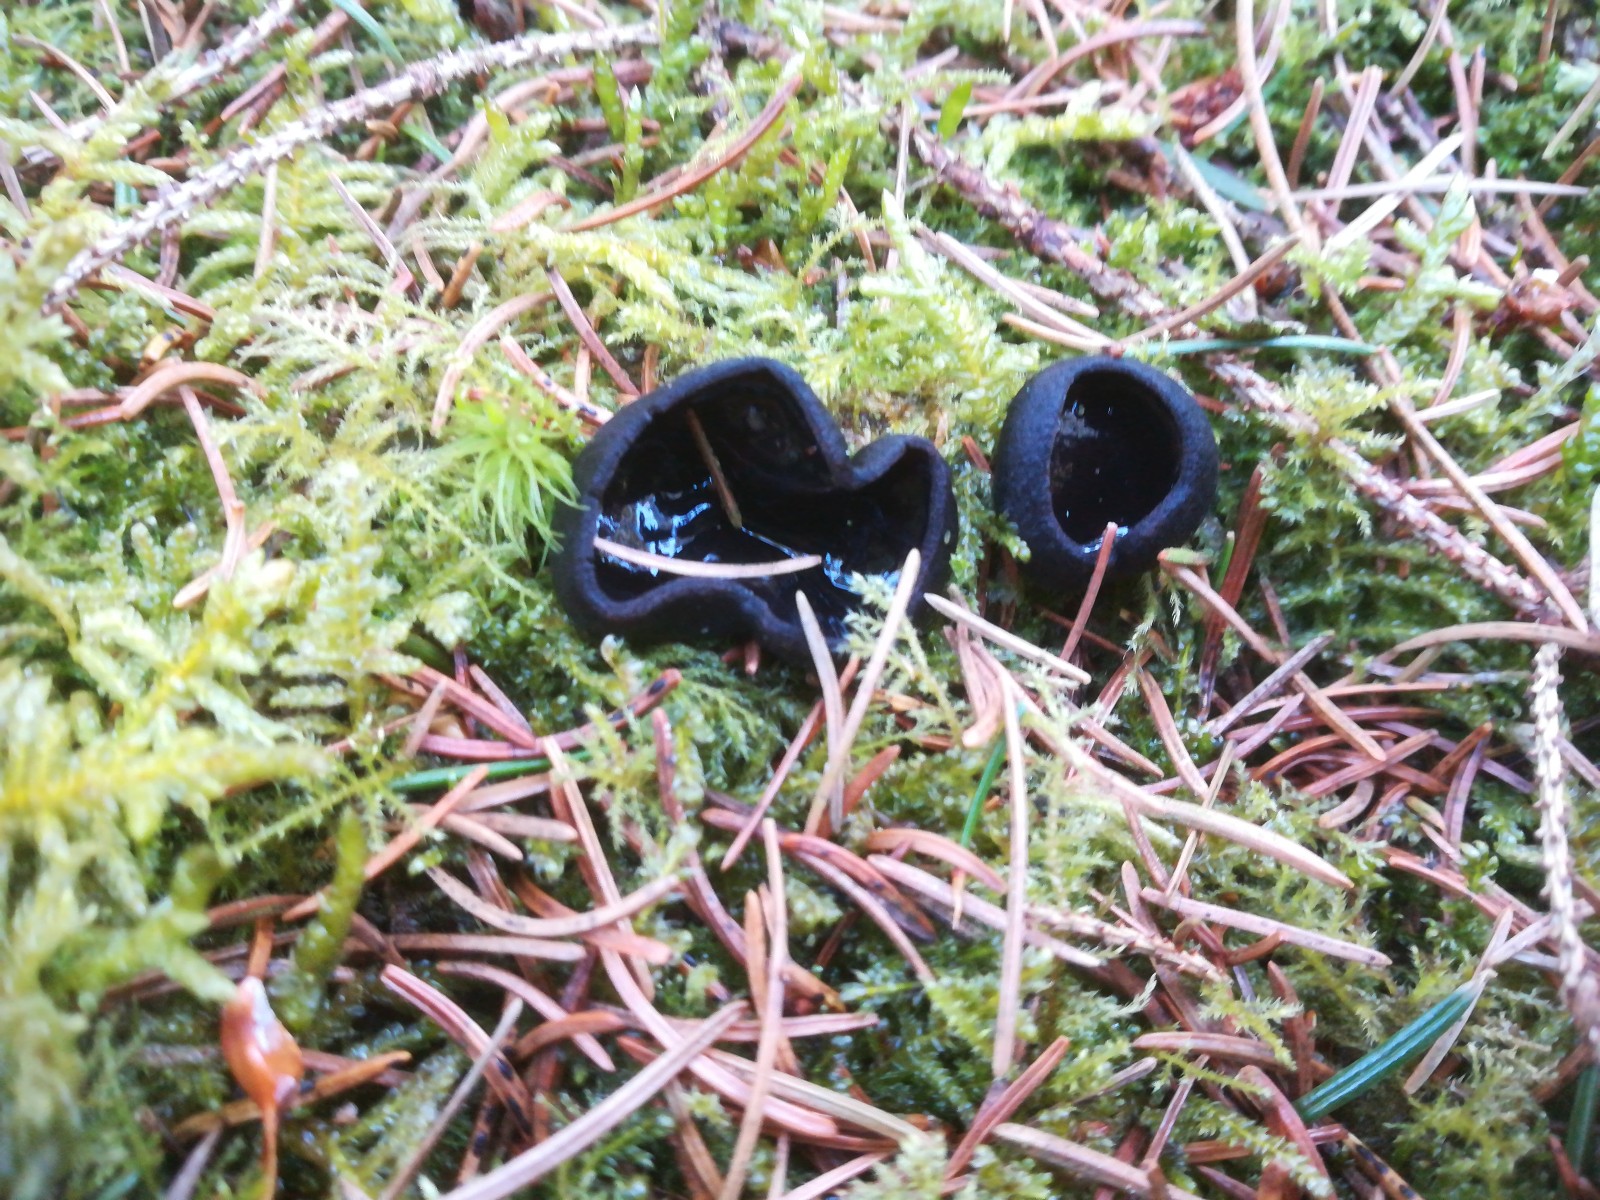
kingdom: Fungi
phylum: Ascomycota
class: Pezizomycetes
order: Pezizales
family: Sarcosomataceae
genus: Pseudoplectania
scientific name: Pseudoplectania nigrella
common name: almindelig sortbæger
